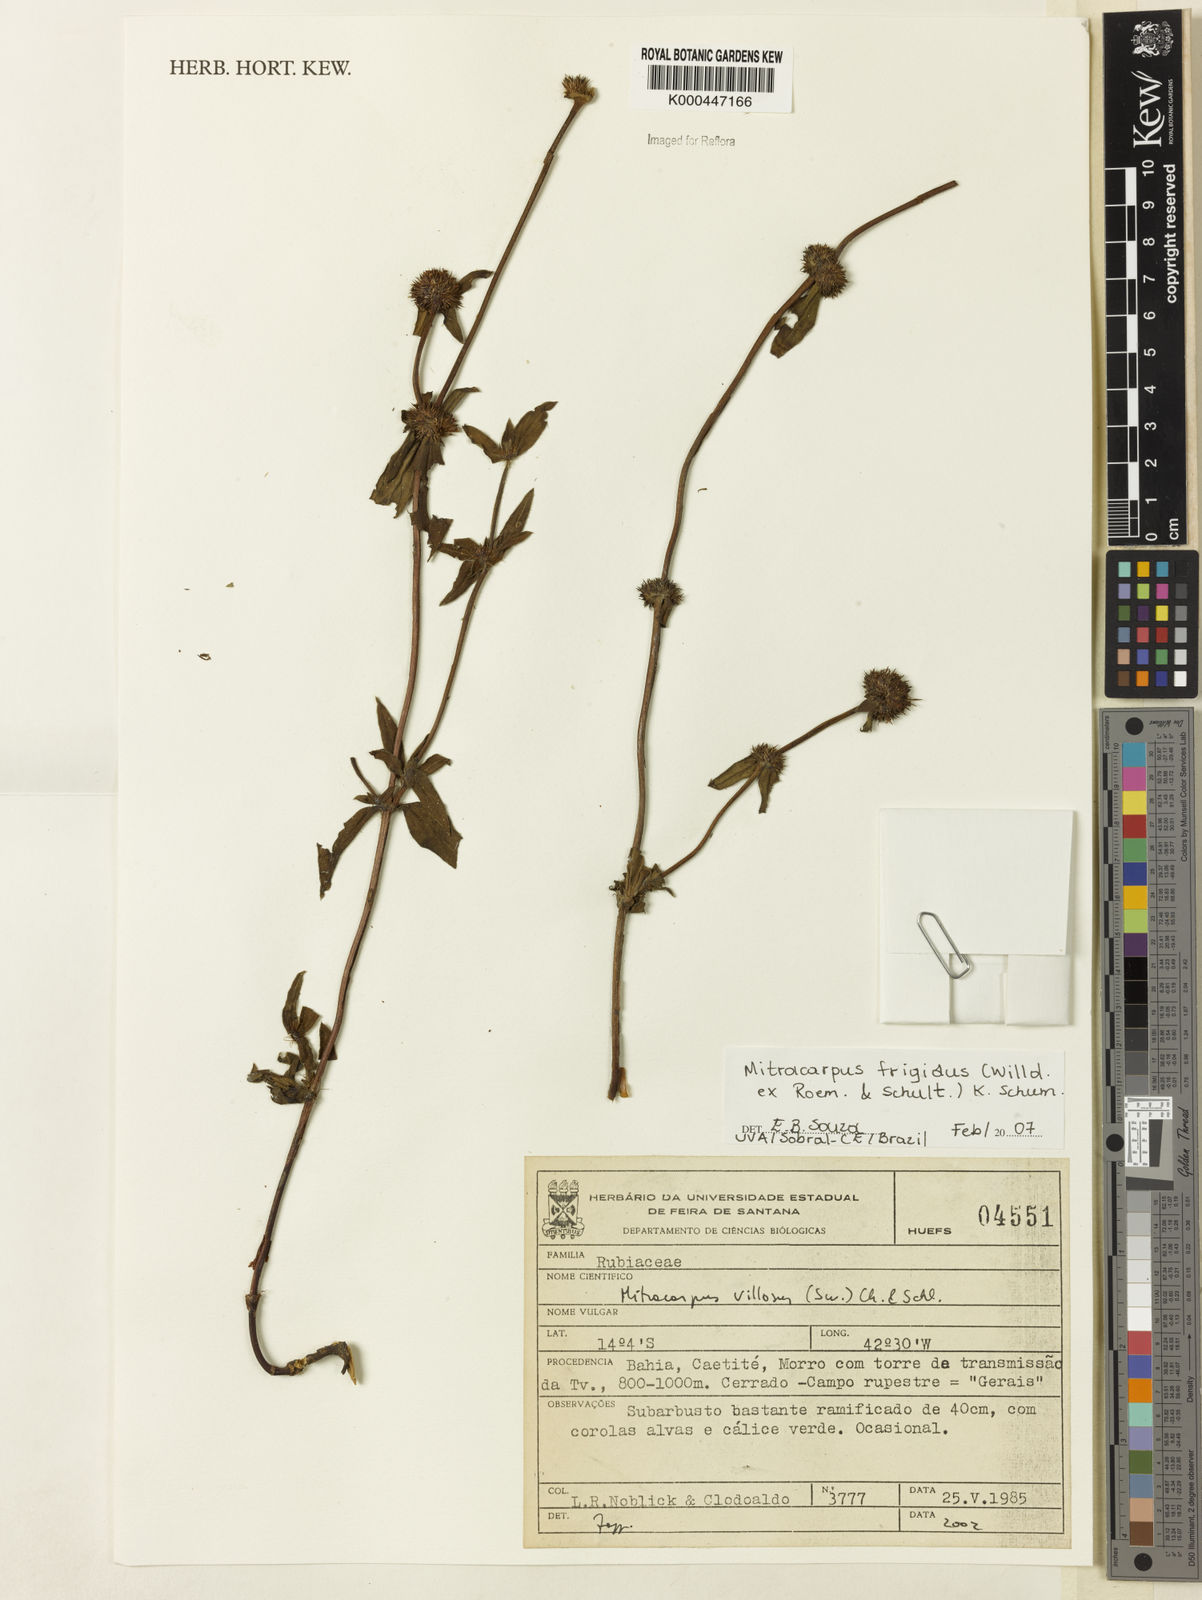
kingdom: Plantae
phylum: Tracheophyta
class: Magnoliopsida
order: Gentianales
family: Rubiaceae
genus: Mitracarpus
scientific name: Mitracarpus frigidus
